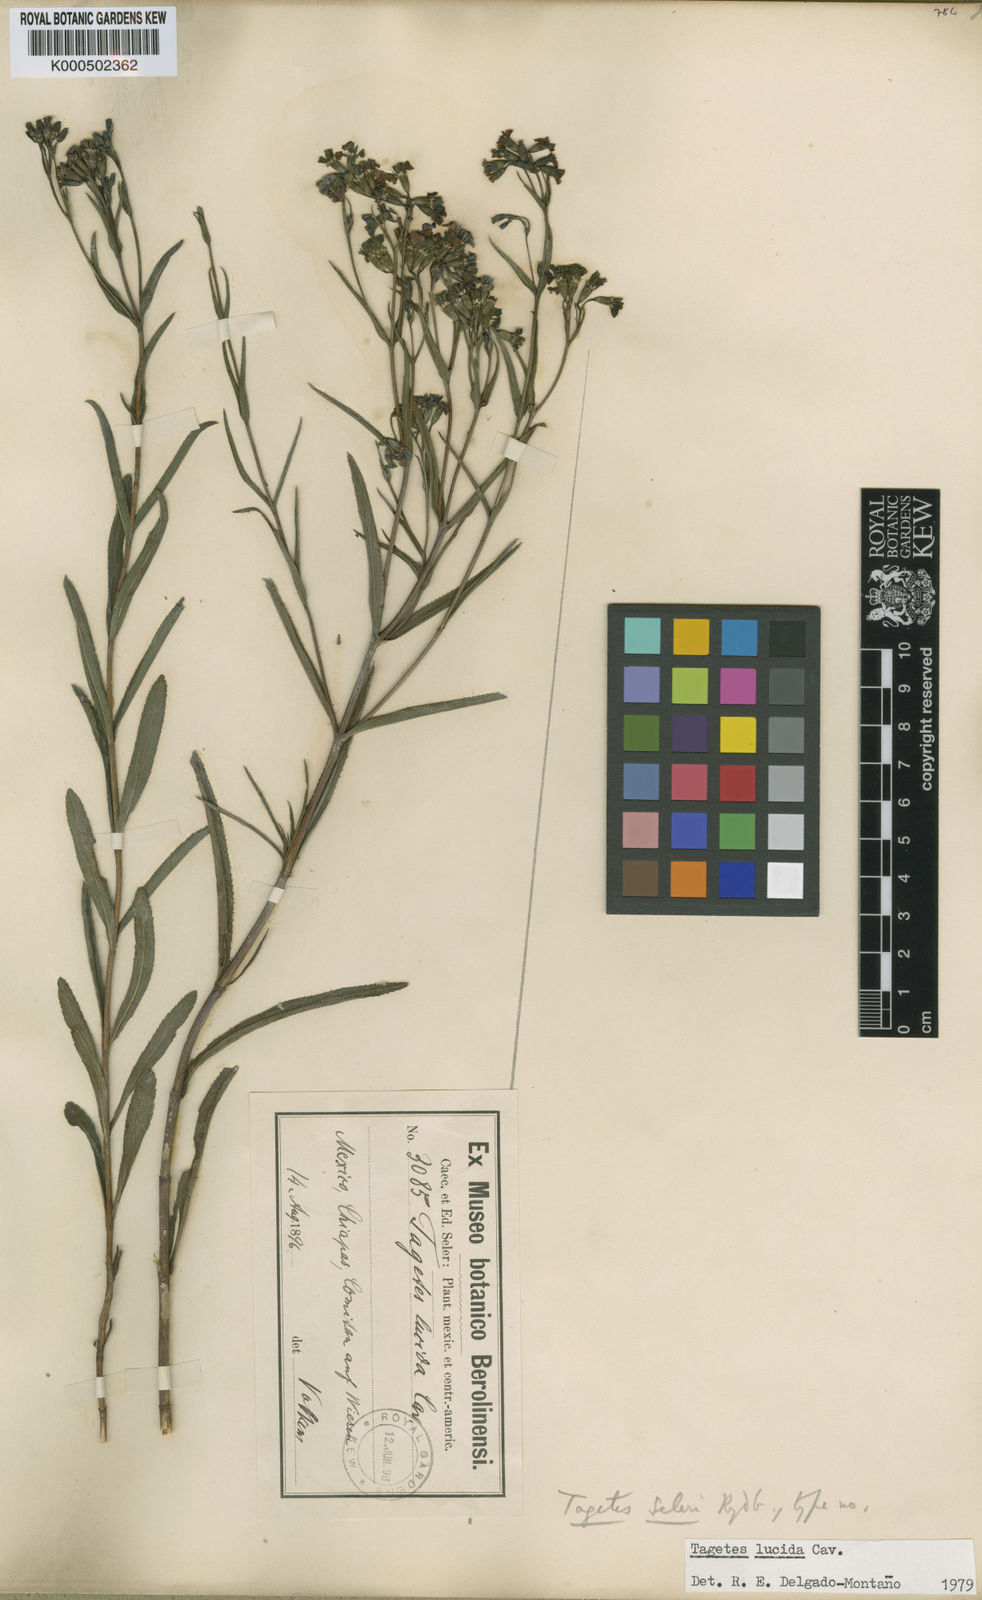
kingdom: Plantae
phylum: Tracheophyta
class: Magnoliopsida
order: Asterales
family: Asteraceae
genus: Tagetes
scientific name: Tagetes lucida
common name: Sweetscented marigold
